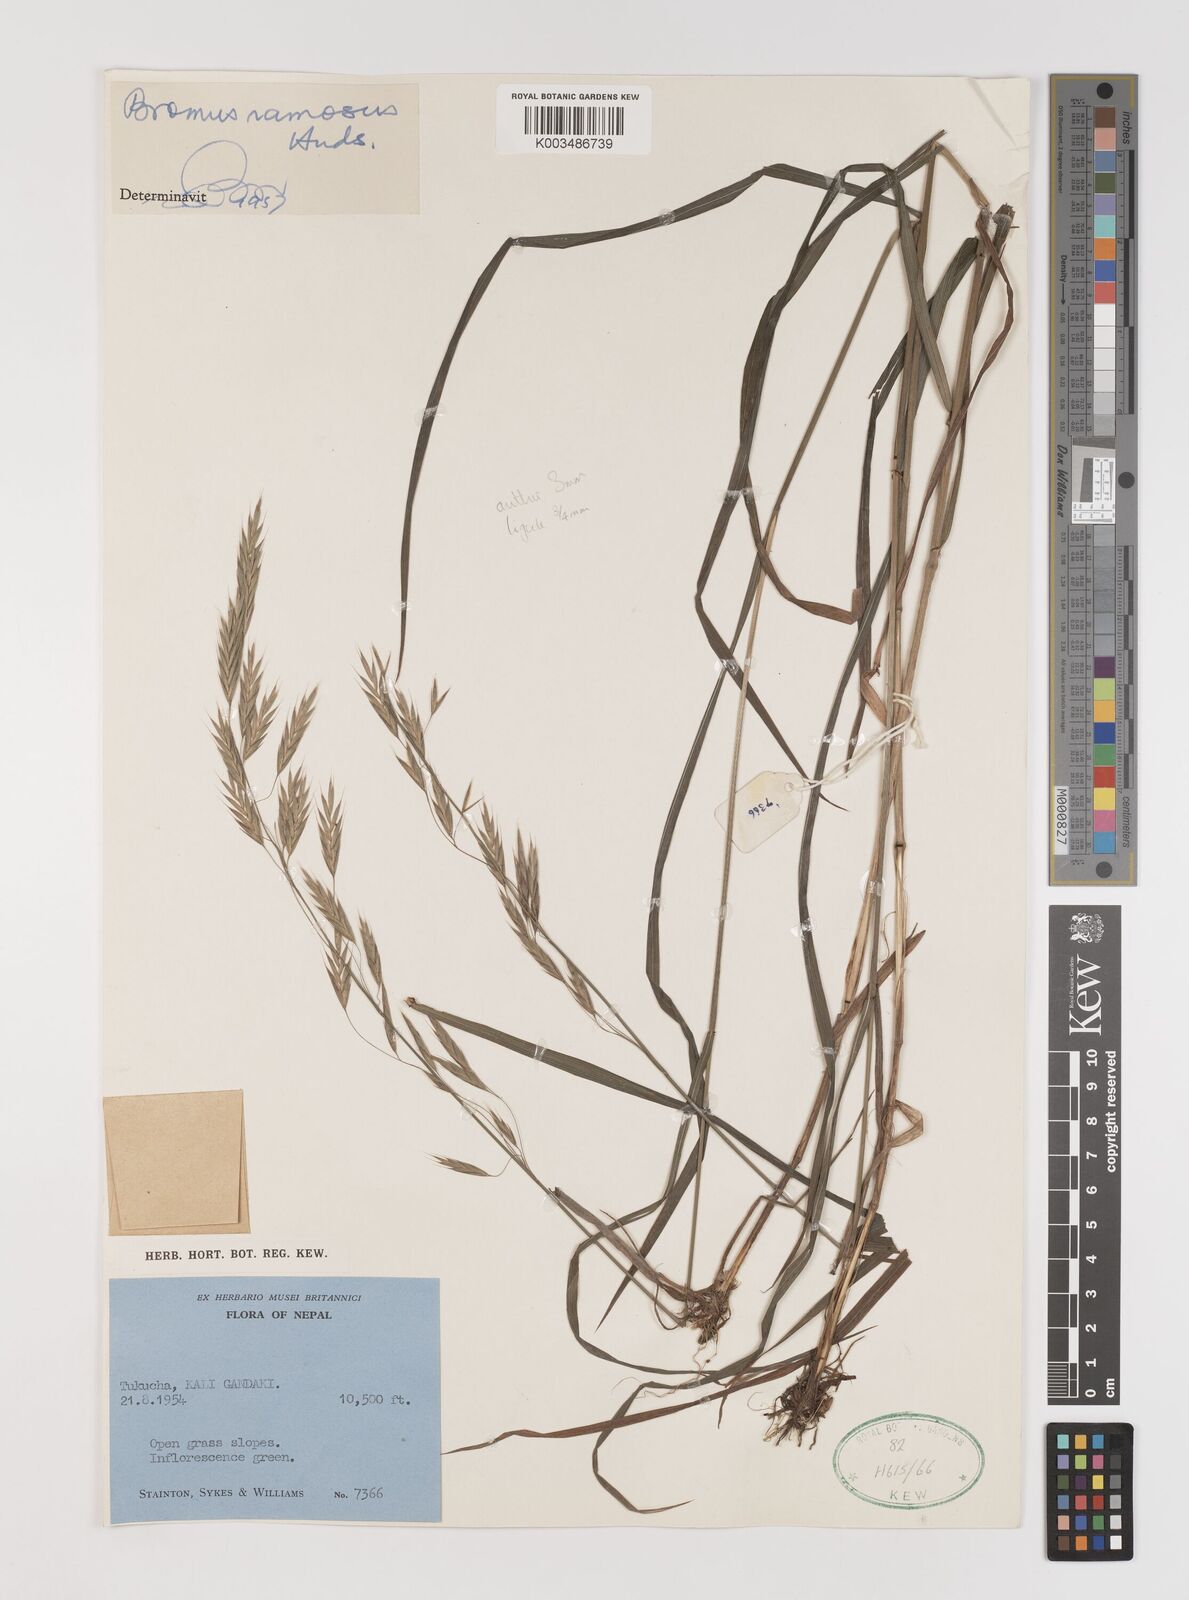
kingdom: Plantae
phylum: Tracheophyta
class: Liliopsida
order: Poales
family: Poaceae
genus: Brachypodium
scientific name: Brachypodium retusum
